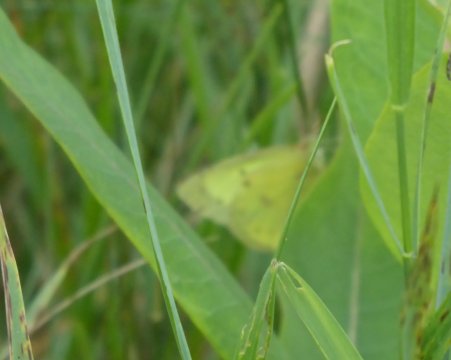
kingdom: Animalia
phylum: Arthropoda
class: Insecta
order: Lepidoptera
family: Pieridae
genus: Colias
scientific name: Colias philodice
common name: Clouded Sulphur
